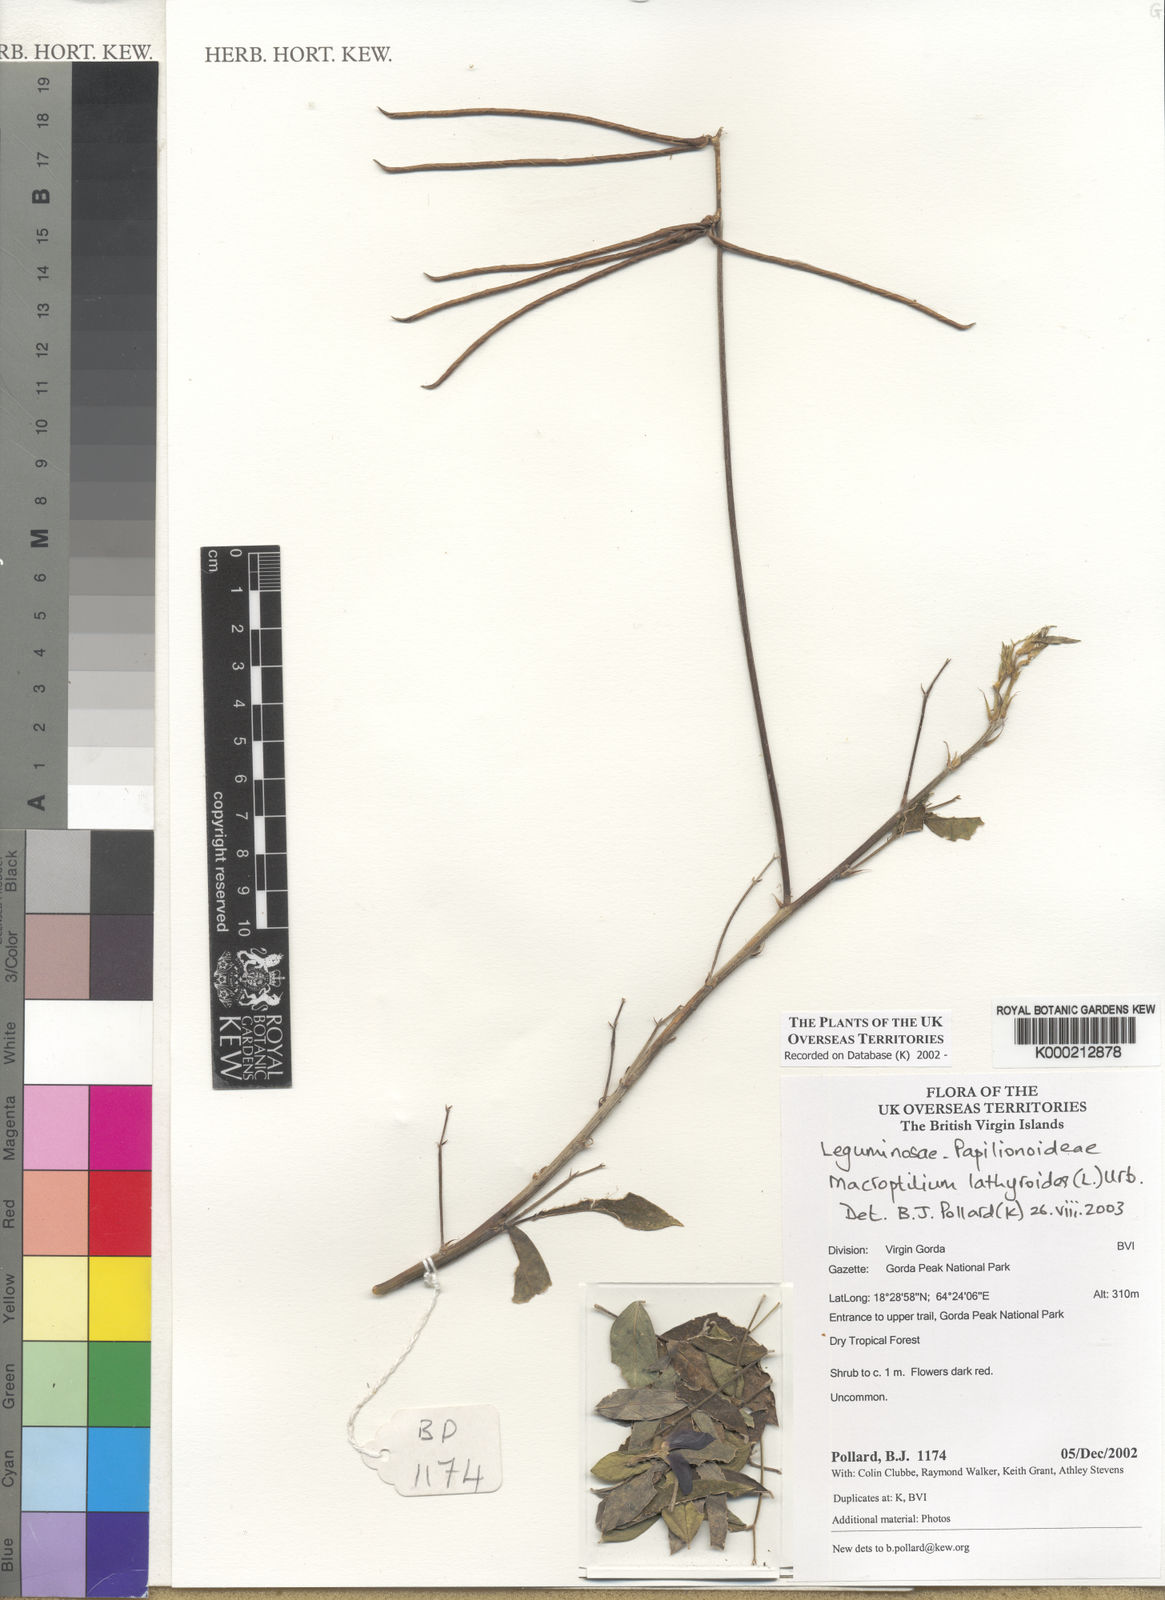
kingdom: Plantae
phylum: Tracheophyta
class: Magnoliopsida
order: Fabales
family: Fabaceae
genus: Macroptilium
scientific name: Macroptilium lathyroides
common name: Wild bushbean
